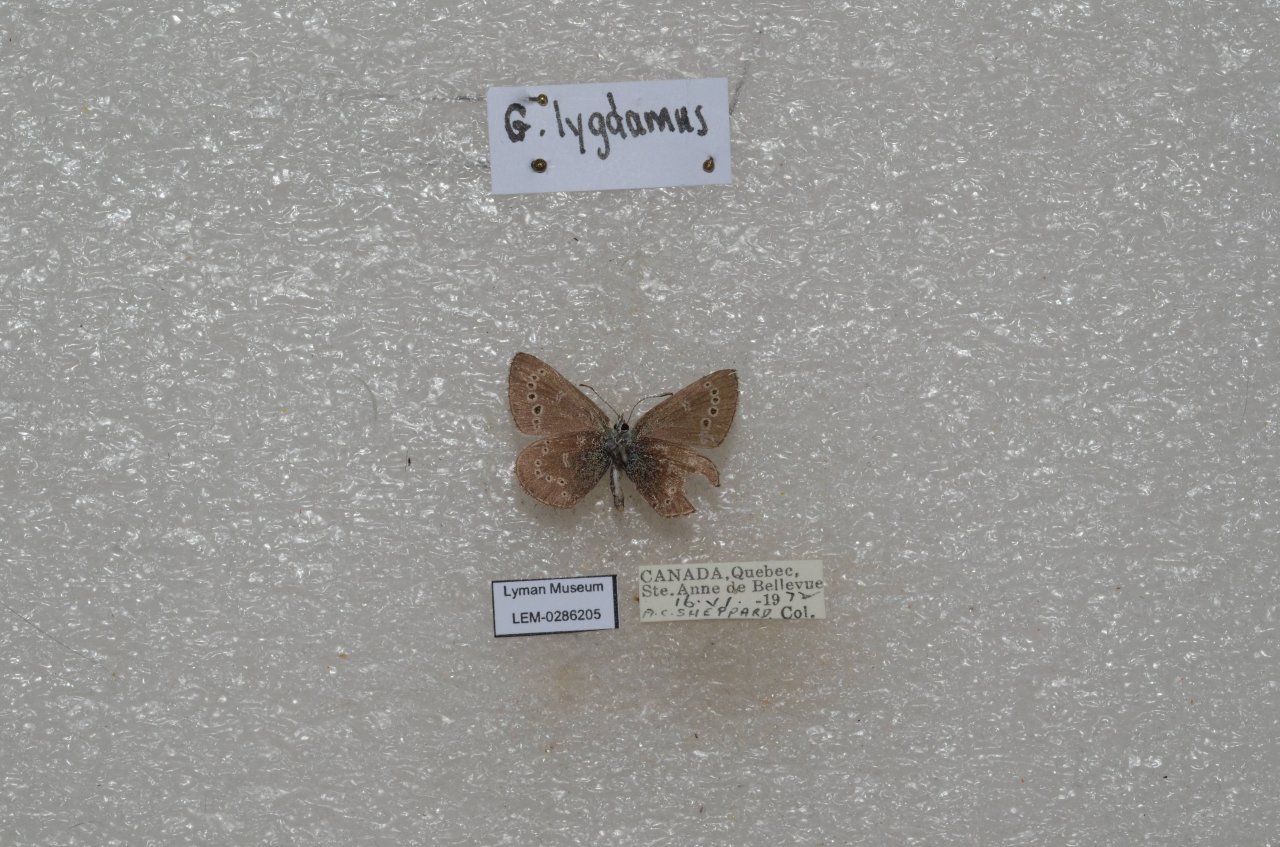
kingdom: Animalia
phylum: Arthropoda
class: Insecta
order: Lepidoptera
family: Lycaenidae
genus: Glaucopsyche
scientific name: Glaucopsyche lygdamus
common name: Silvery Blue
